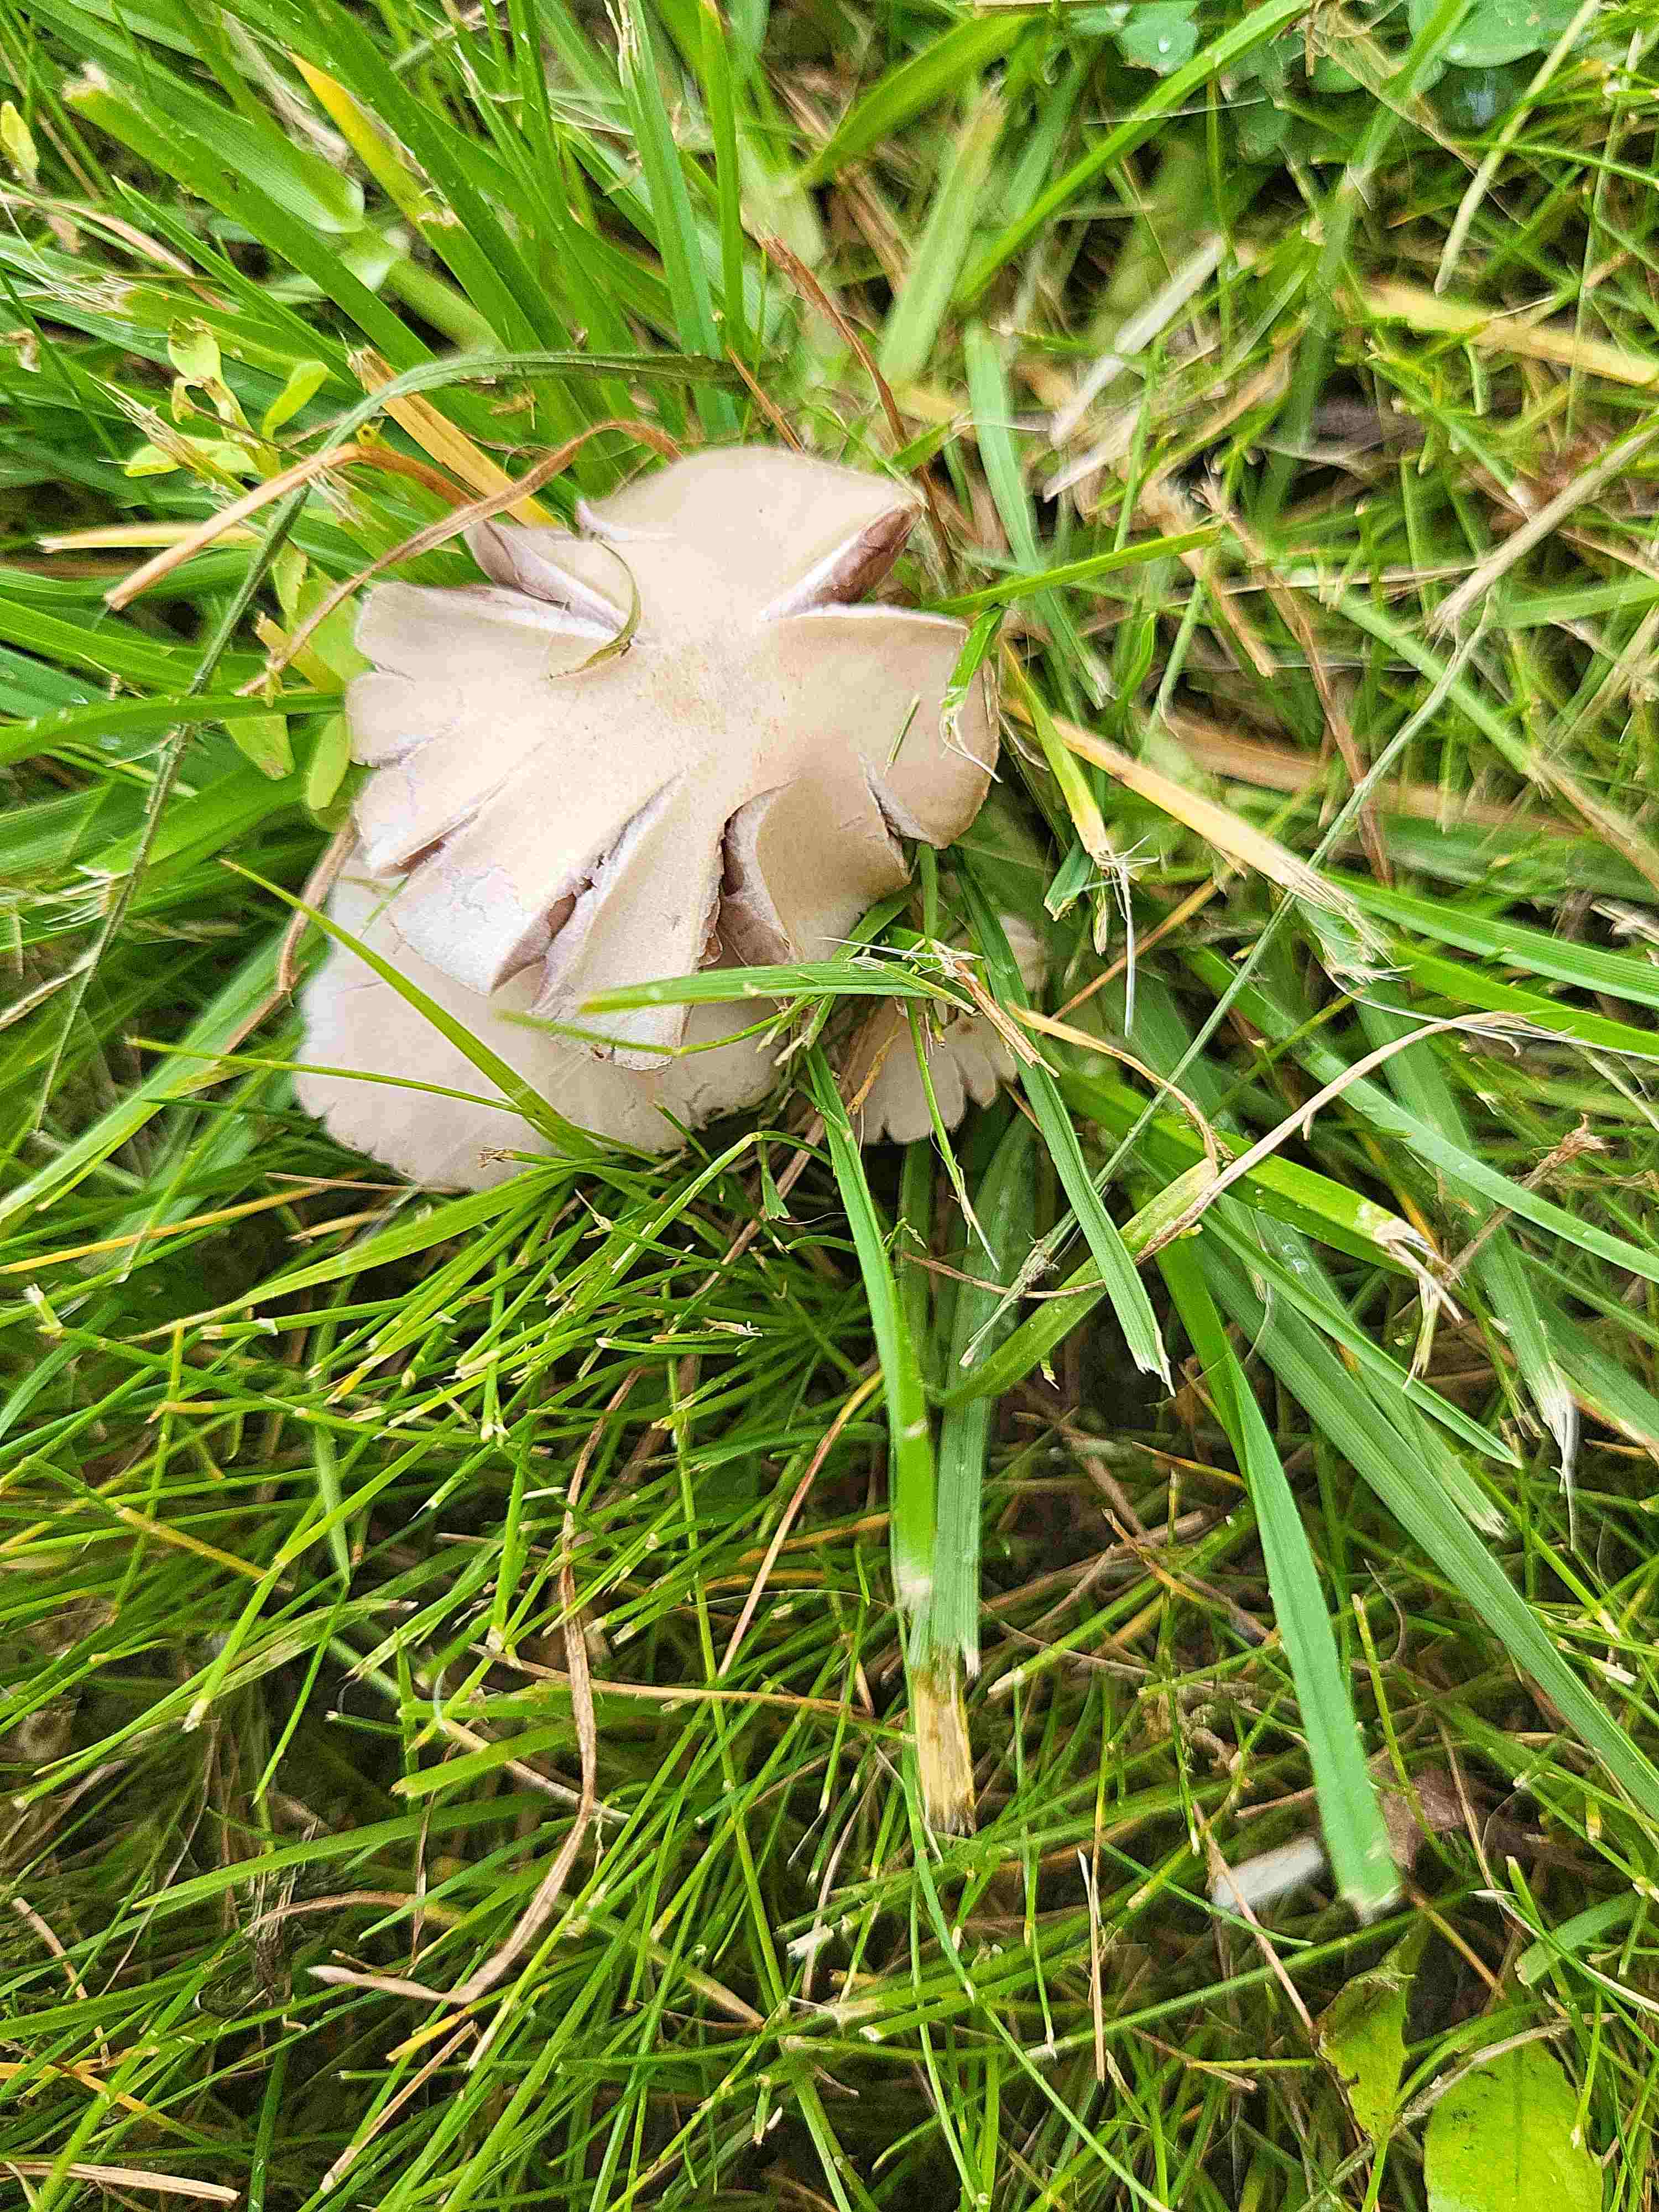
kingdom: Fungi
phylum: Basidiomycota
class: Agaricomycetes
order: Agaricales
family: Psathyrellaceae
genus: Candolleomyces
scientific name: Candolleomyces candolleanus
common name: Candolles mørkhat
